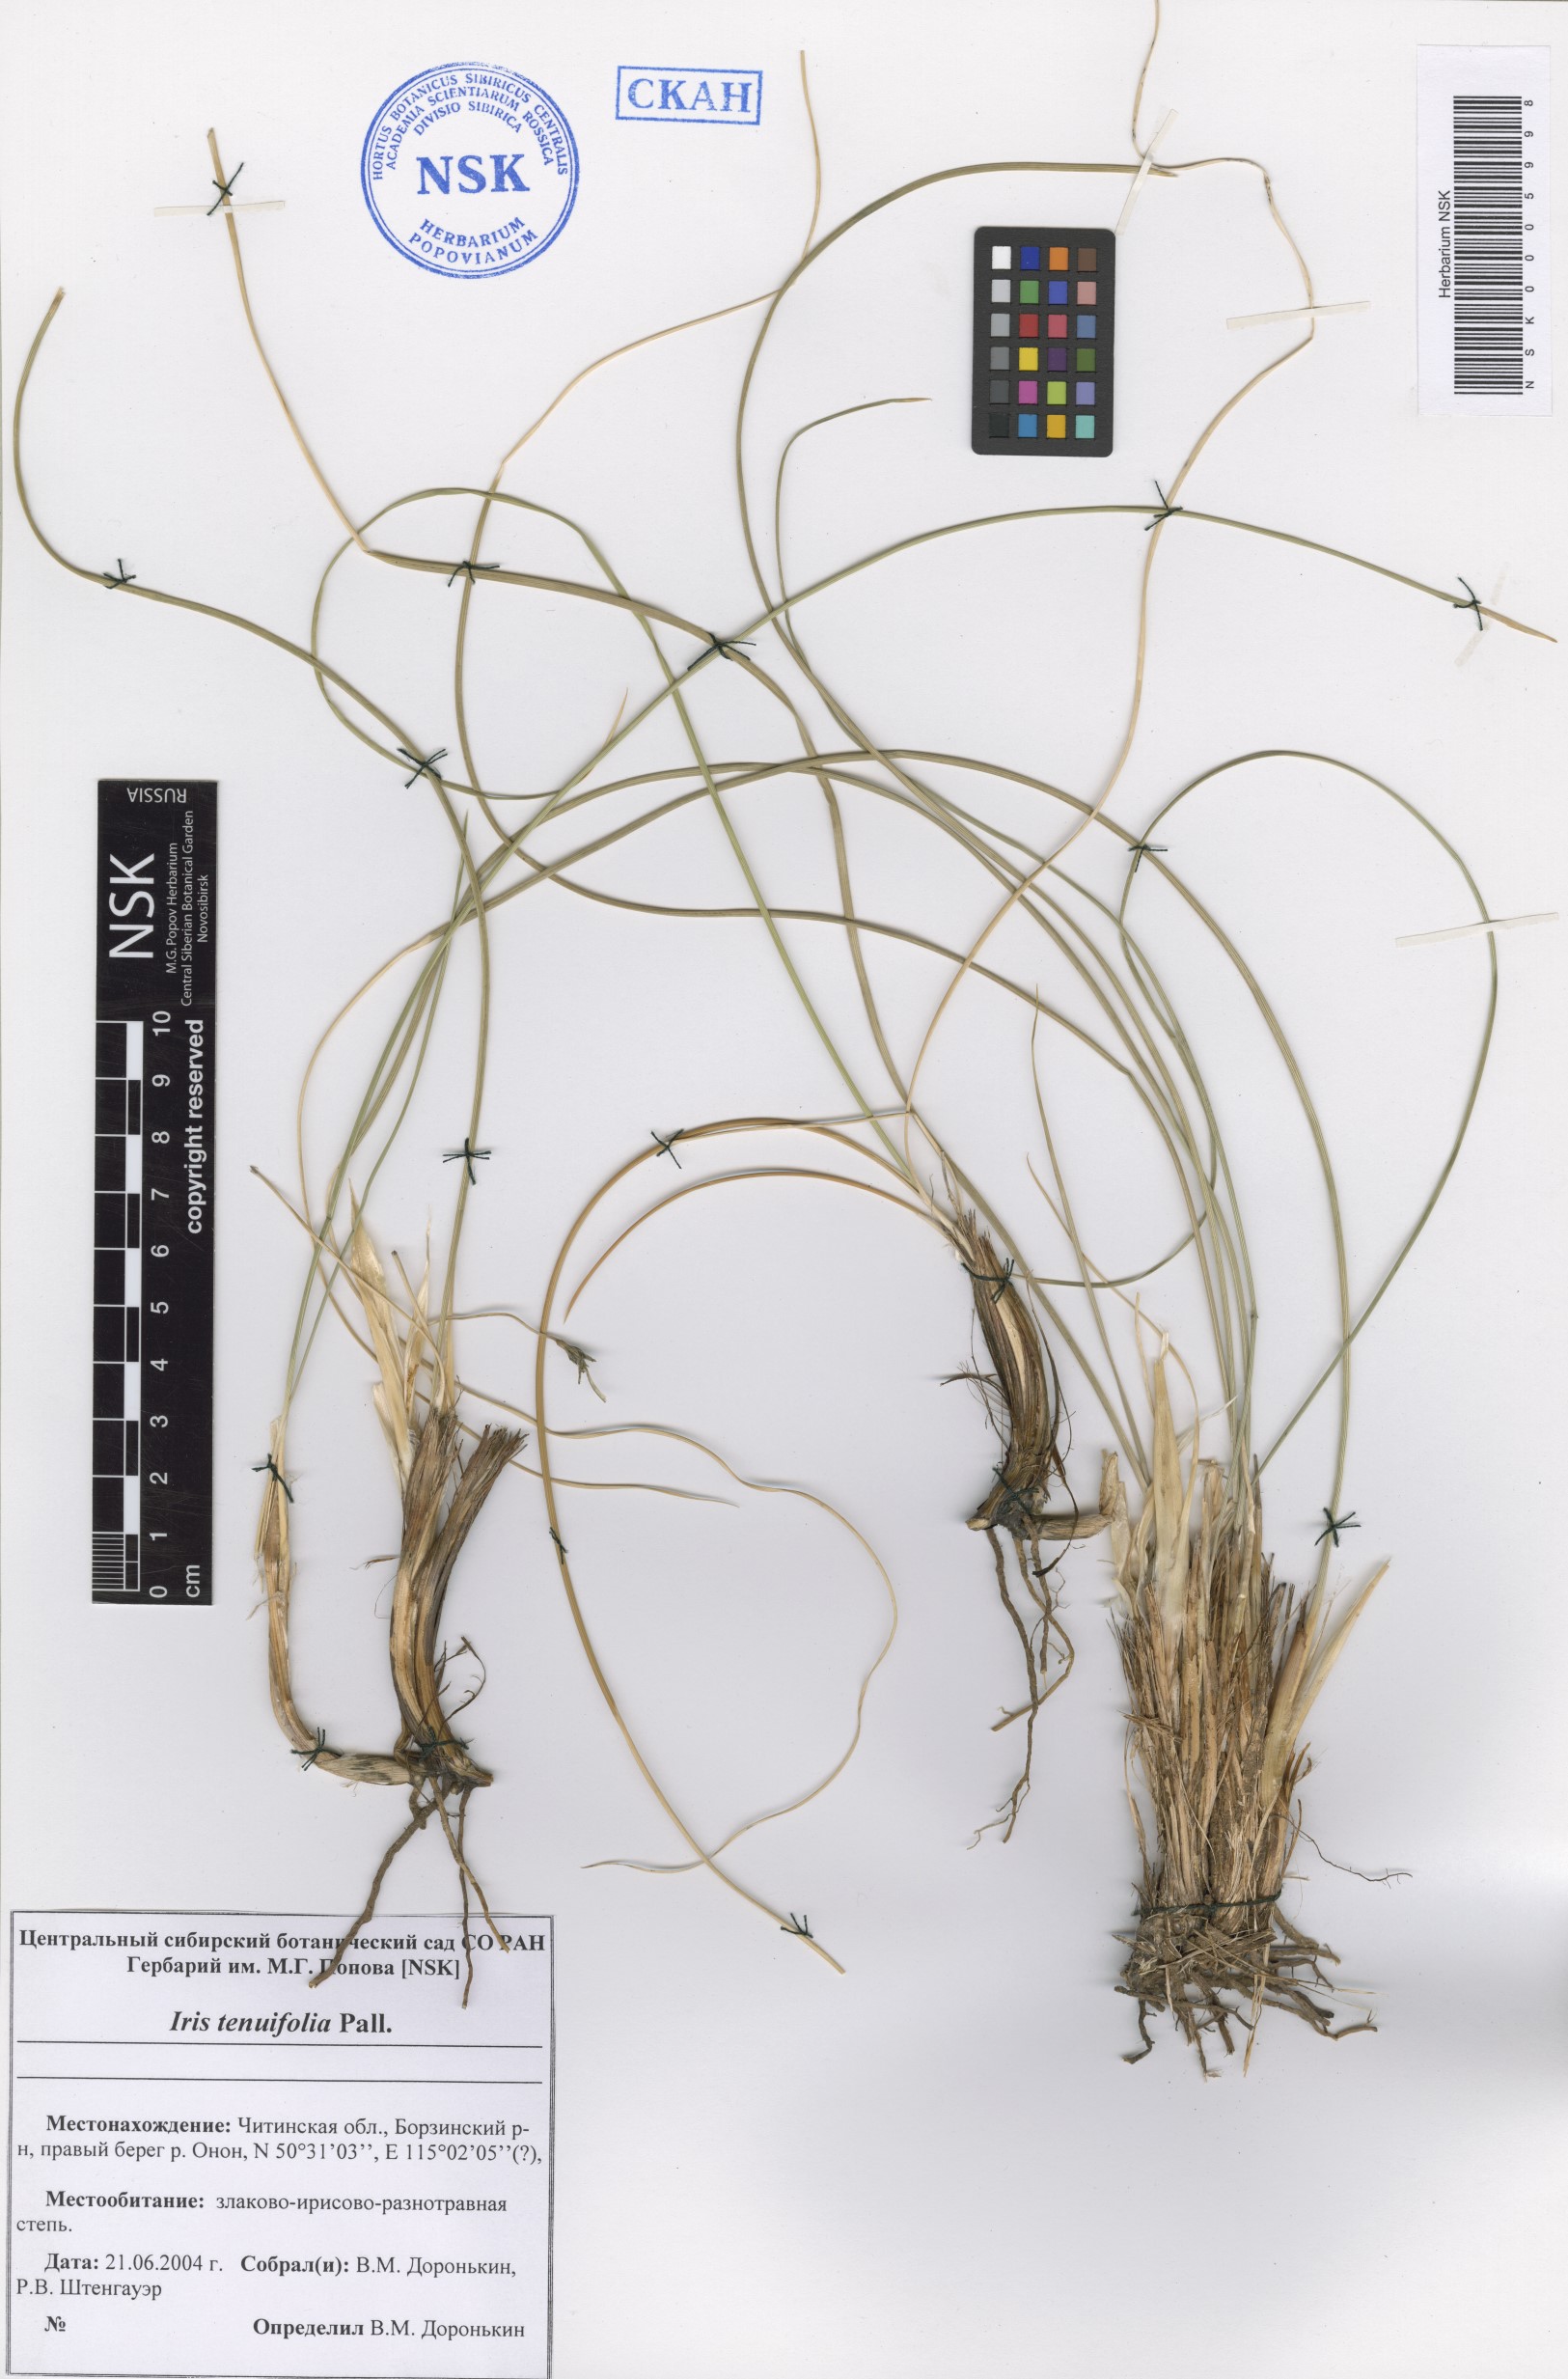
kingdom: Plantae
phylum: Tracheophyta
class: Liliopsida
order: Asparagales
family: Iridaceae
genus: Iris
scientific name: Iris tenuifolia
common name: Slender-leaf iris
